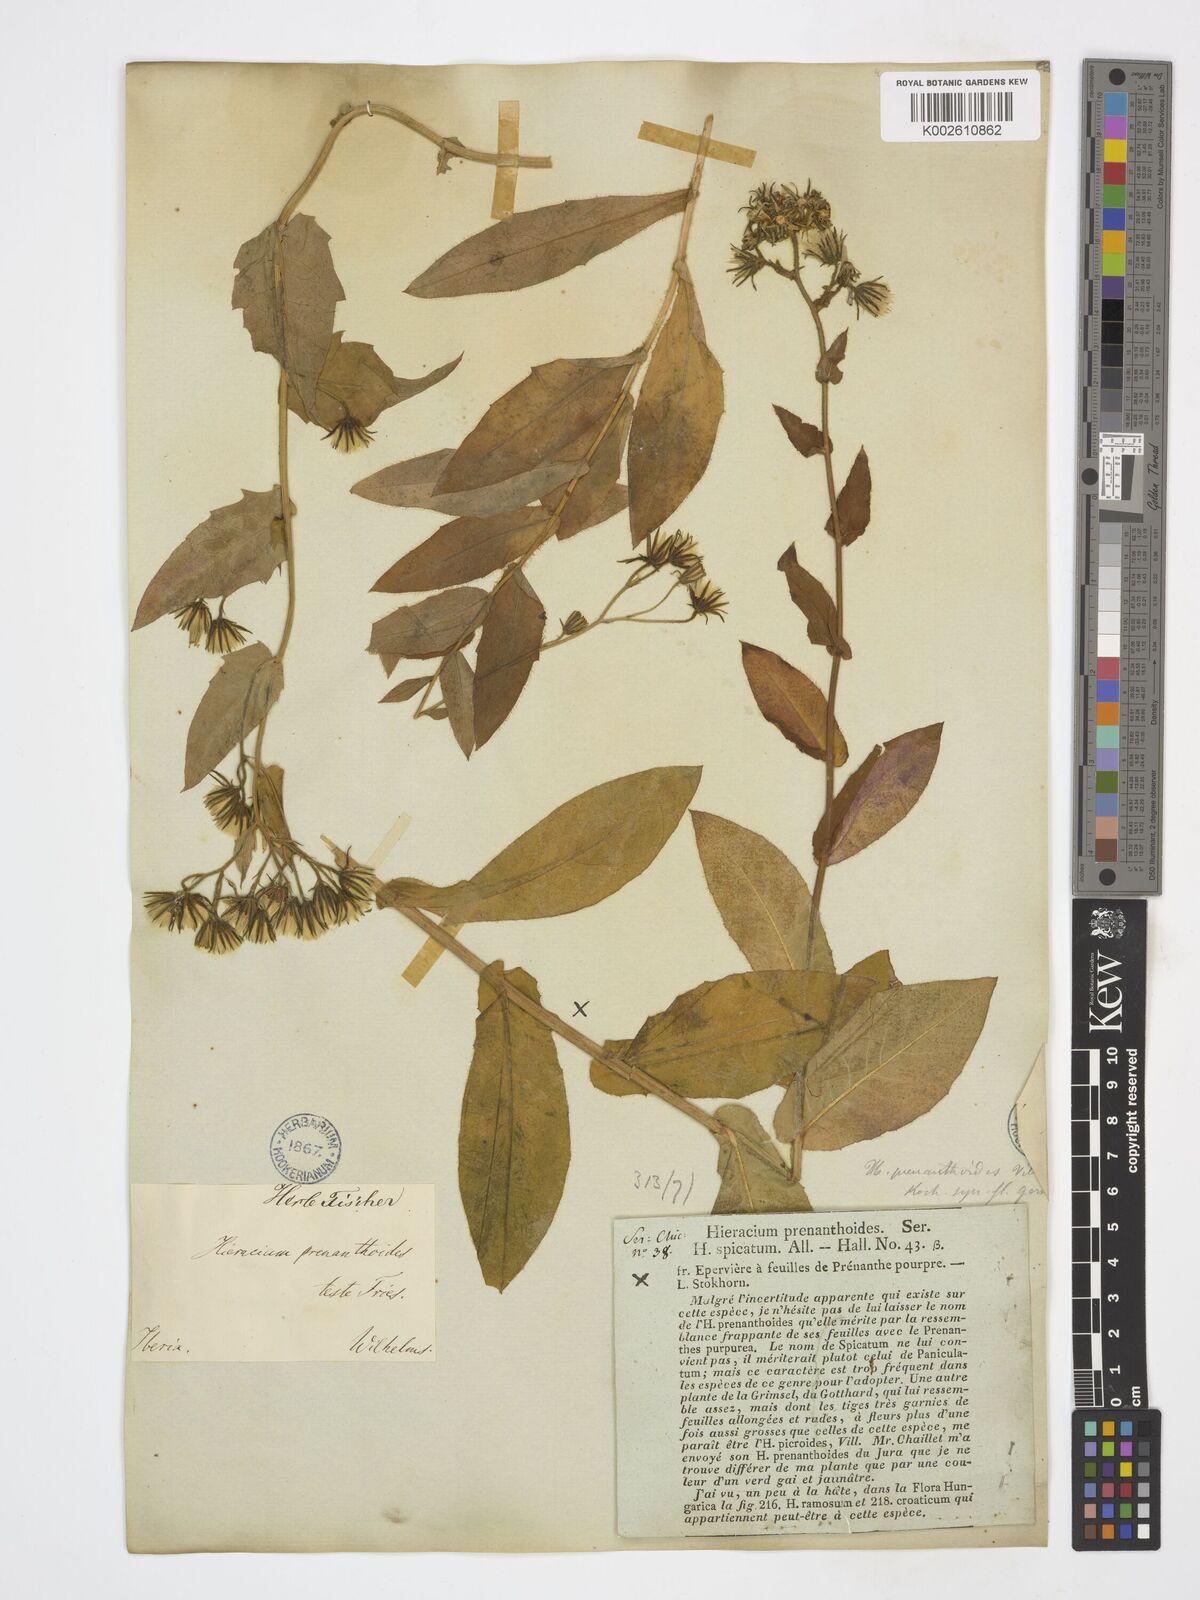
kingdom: Plantae
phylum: Tracheophyta
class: Magnoliopsida
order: Asterales
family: Asteraceae
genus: Hieracium
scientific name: Hieracium prenanthoides
